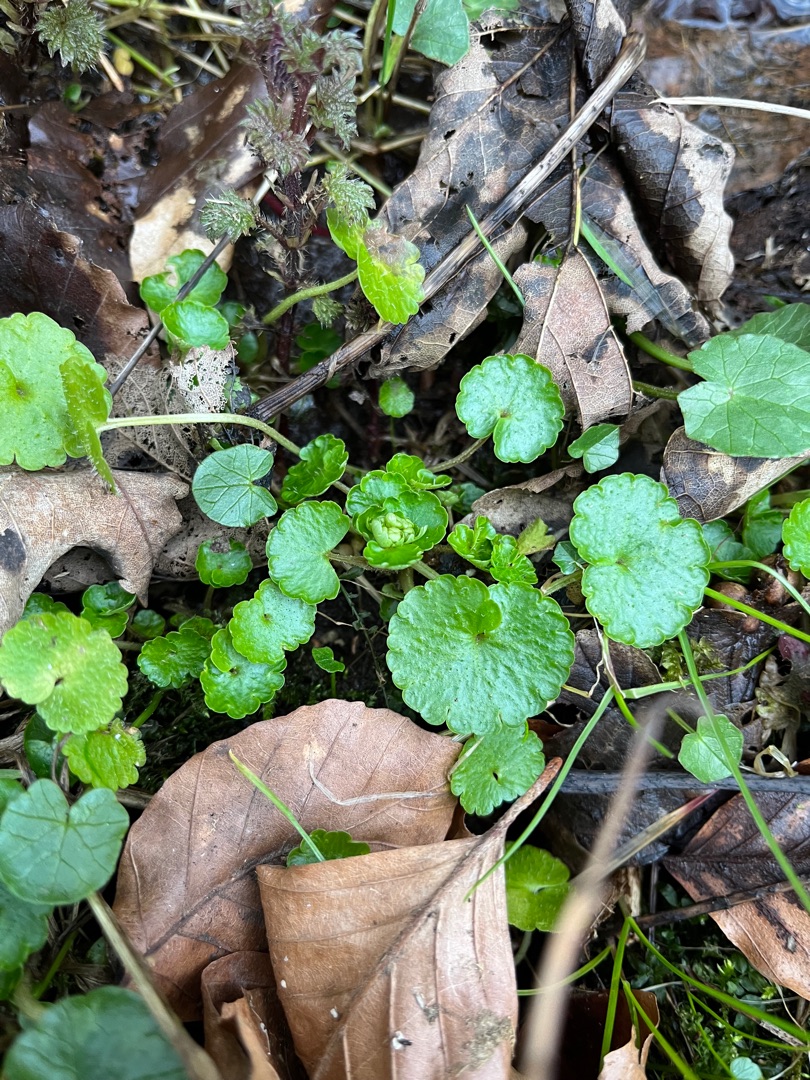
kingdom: Plantae
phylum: Tracheophyta
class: Magnoliopsida
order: Saxifragales
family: Saxifragaceae
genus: Chrysosplenium
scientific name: Chrysosplenium alternifolium
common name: Almindelig milturt
